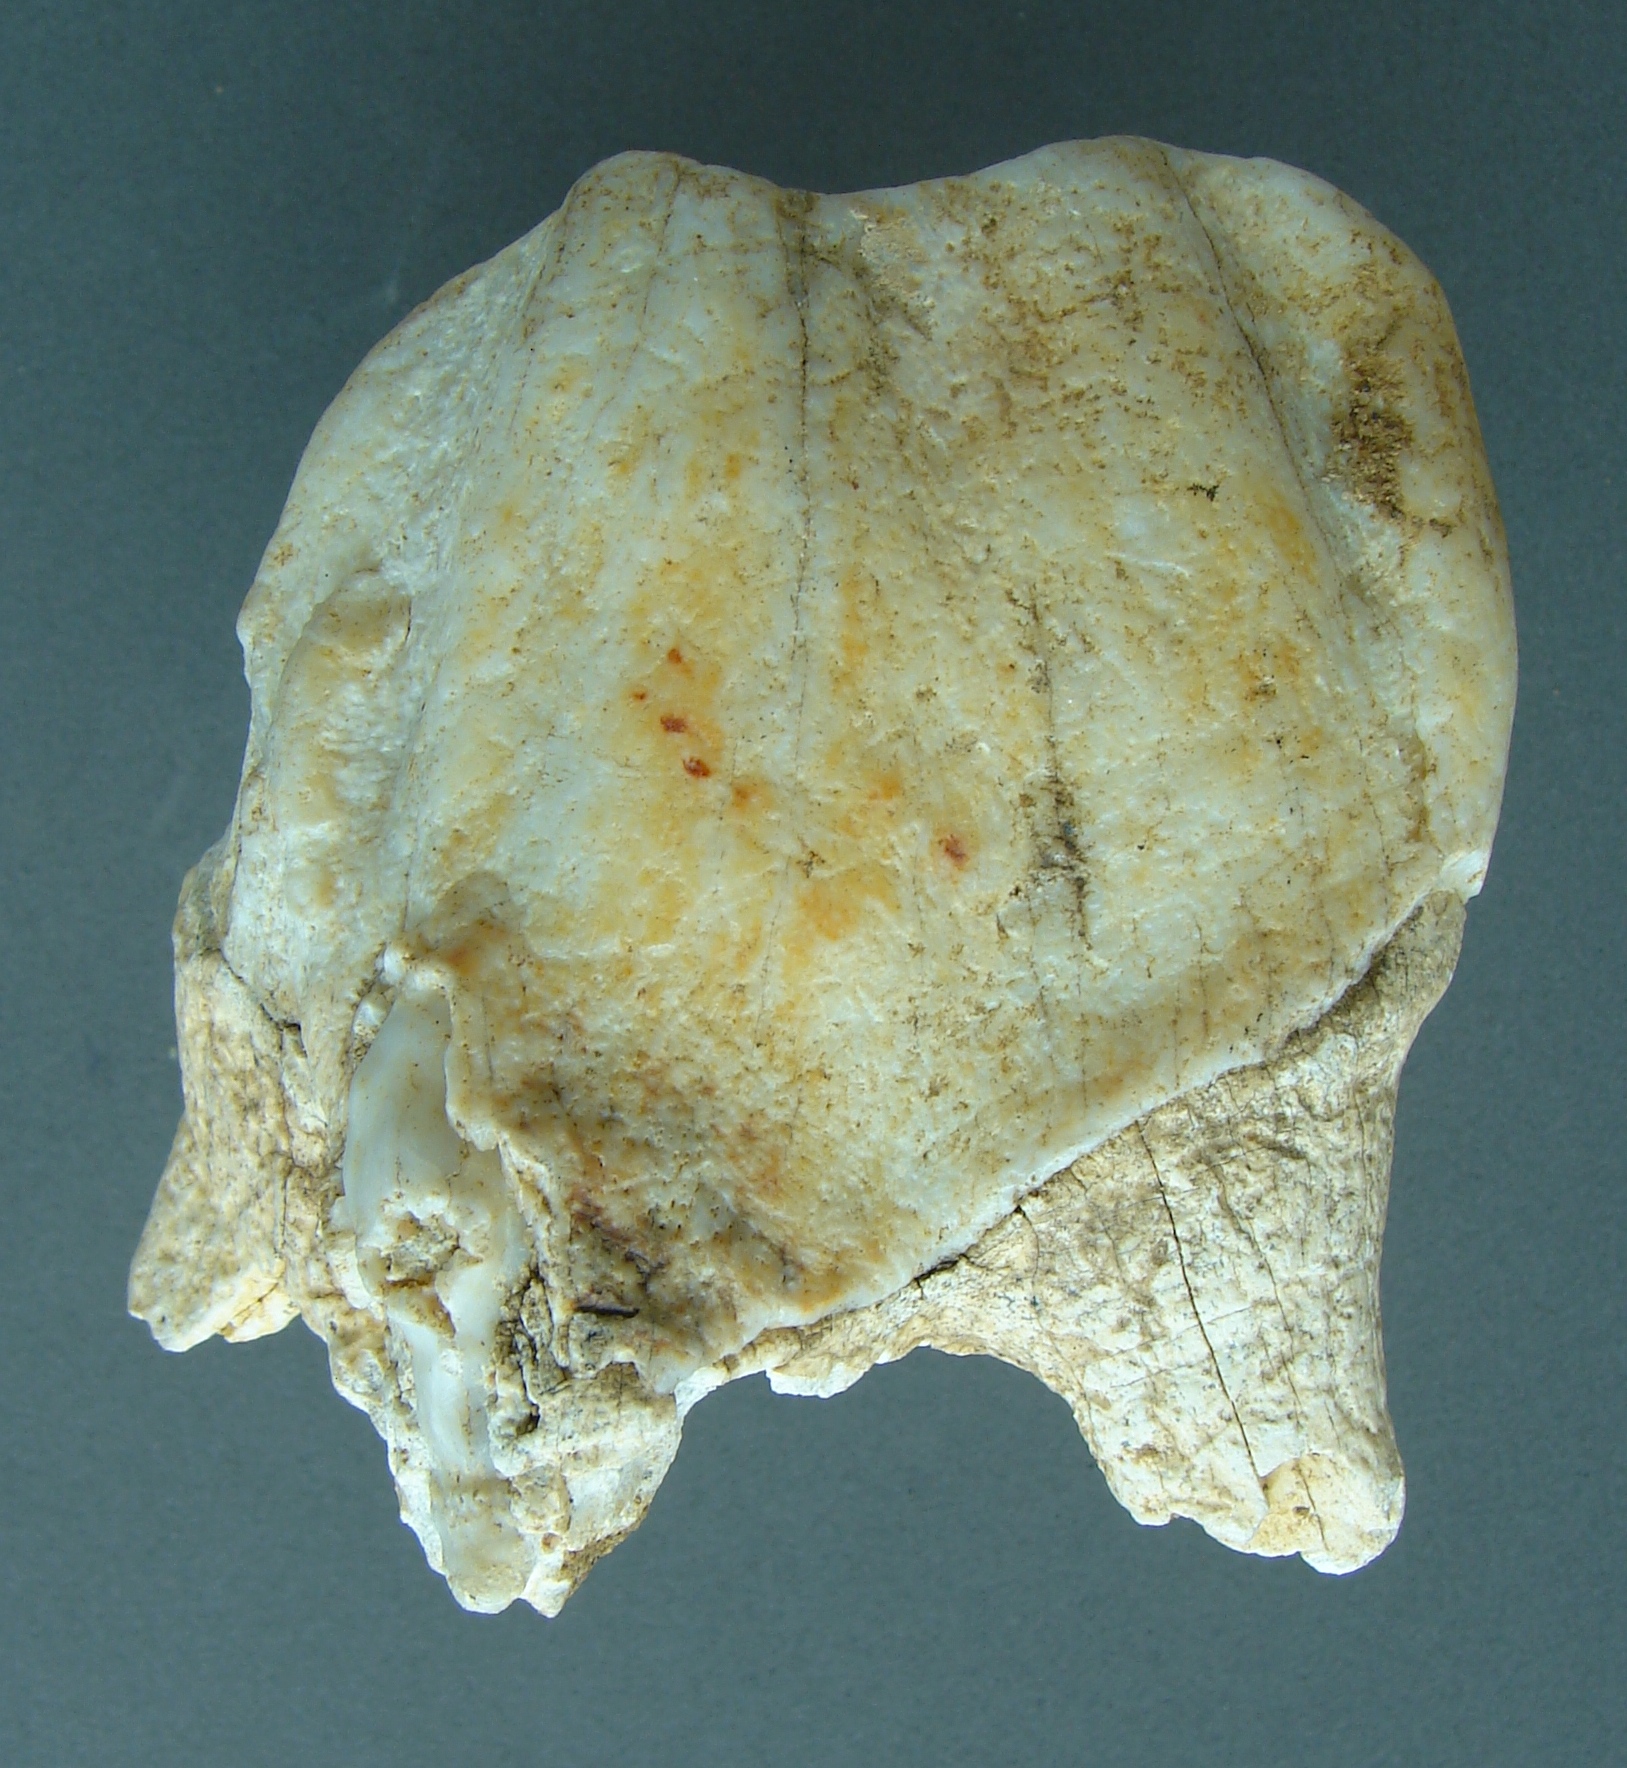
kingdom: Animalia
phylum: Chordata
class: Mammalia
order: Perissodactyla
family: Rhinocerotidae
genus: Rhinoceros
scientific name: Rhinoceros
